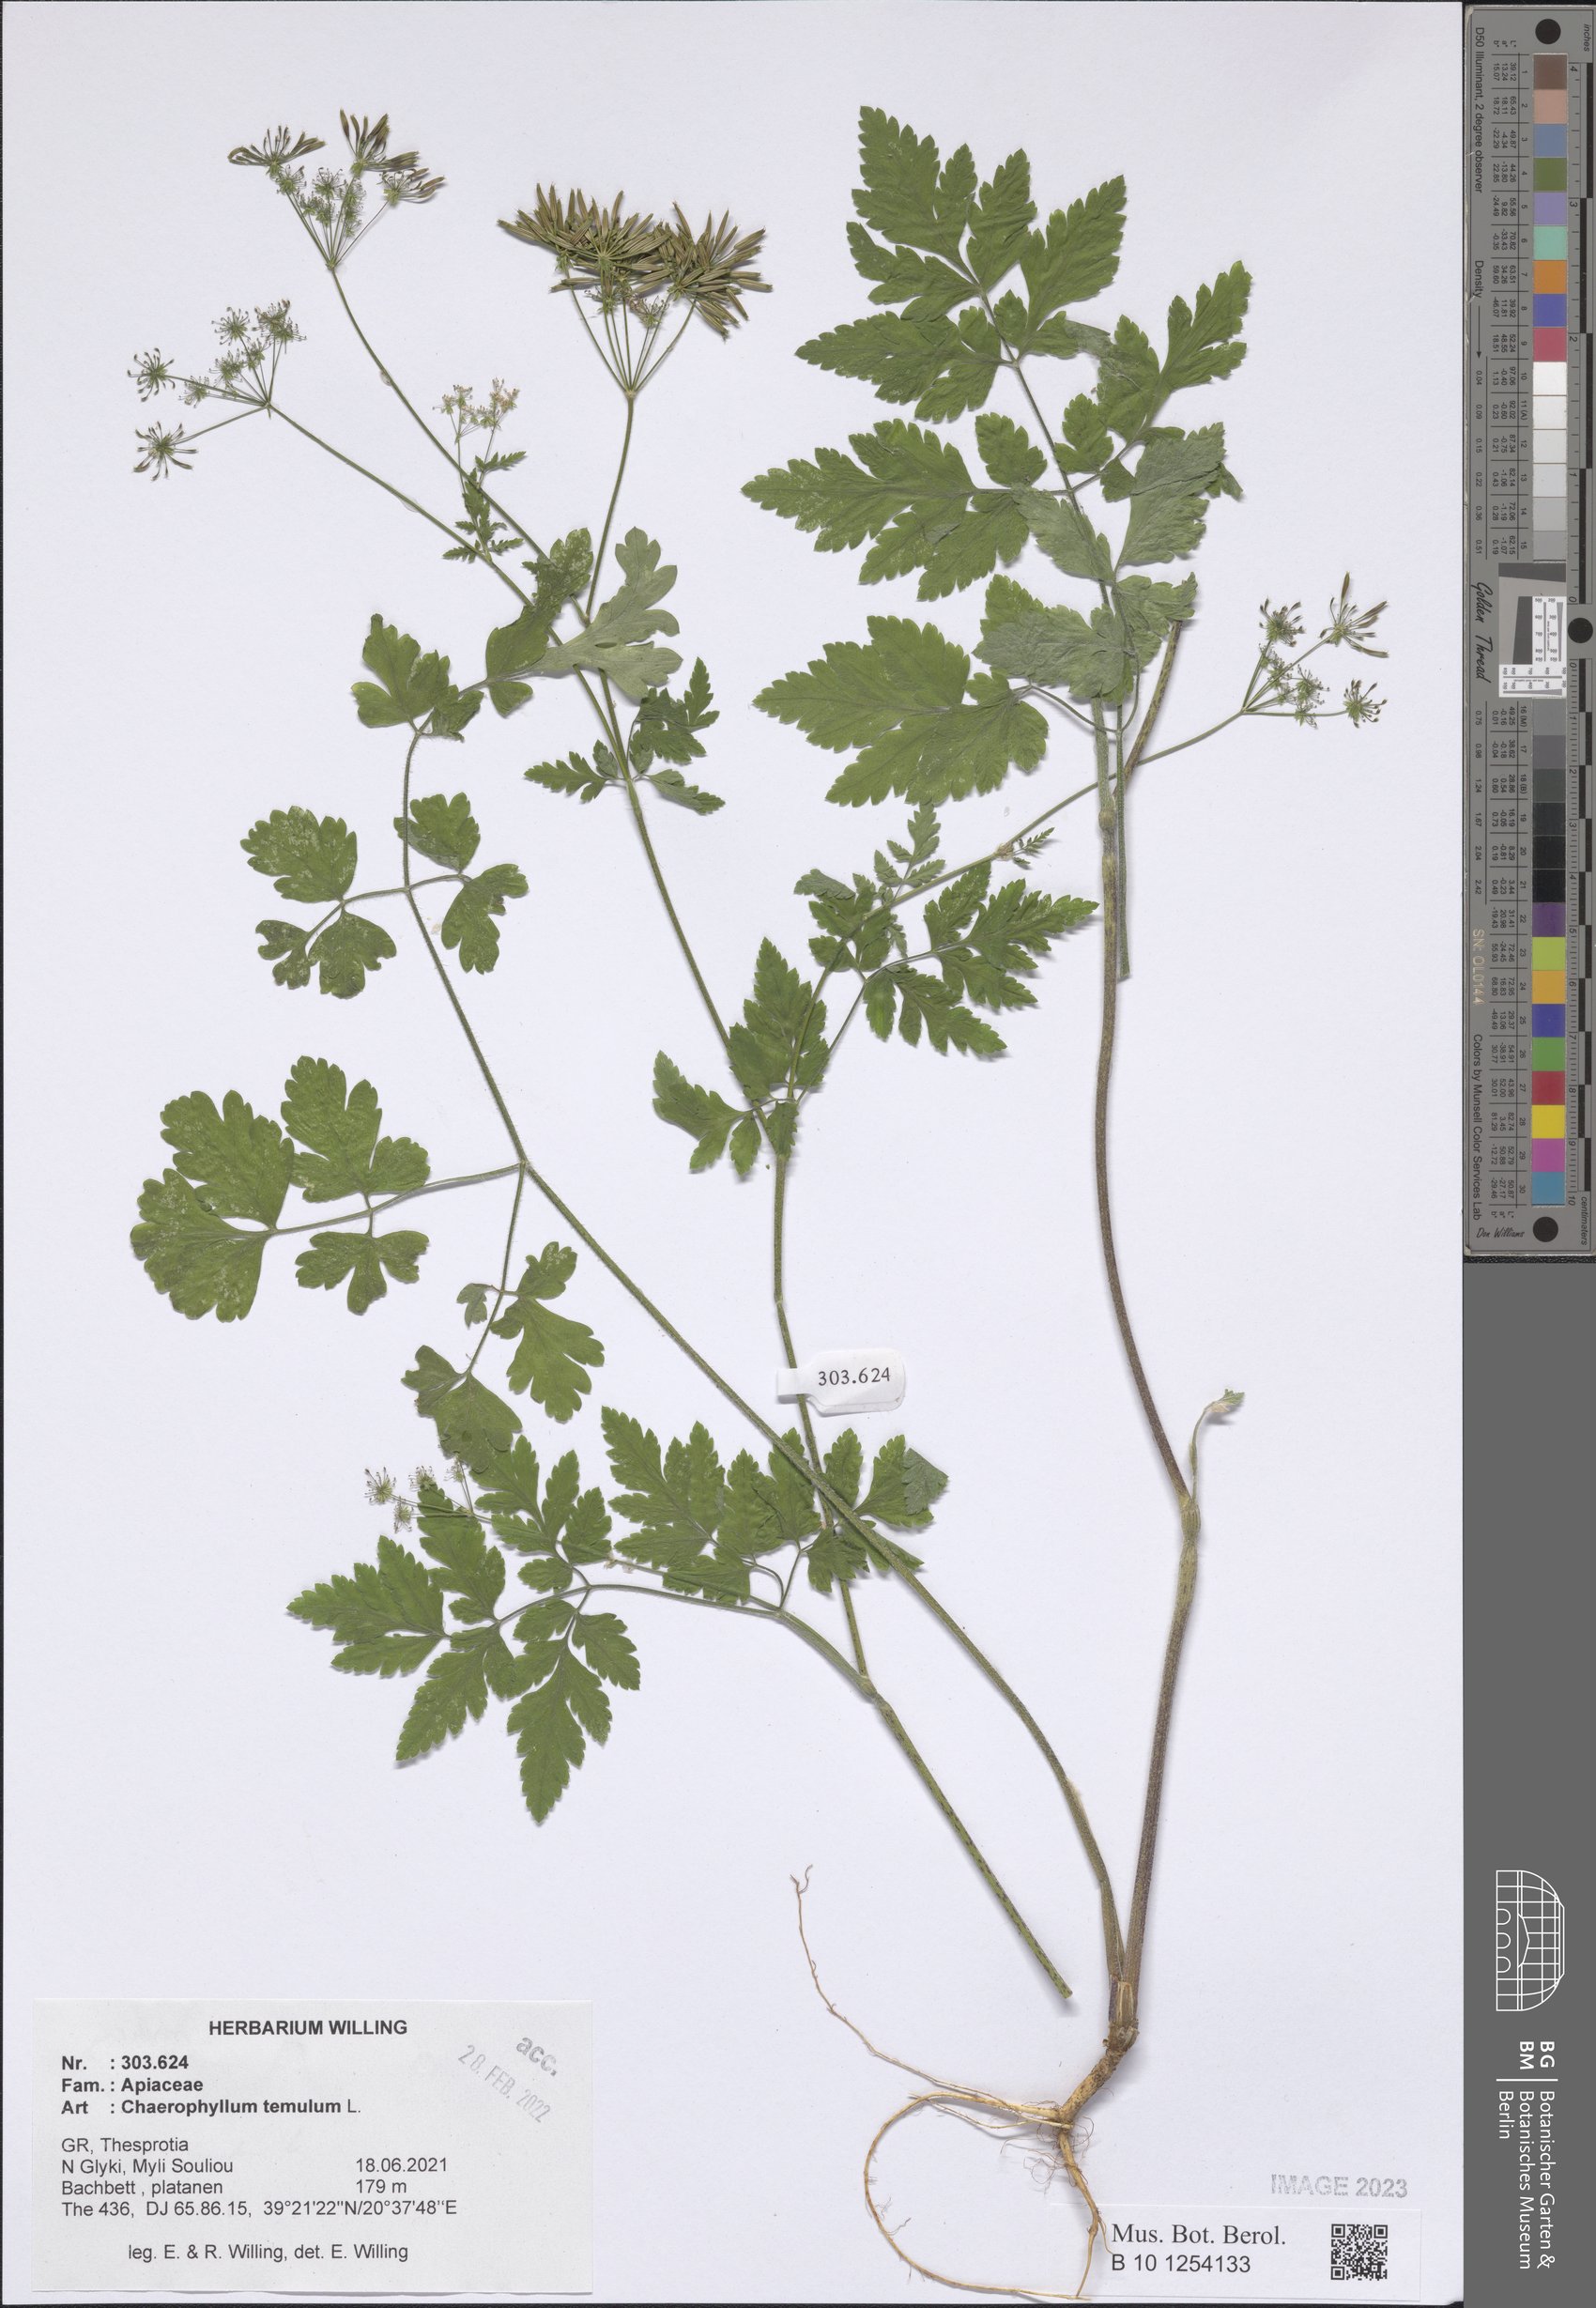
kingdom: Plantae
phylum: Tracheophyta
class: Magnoliopsida
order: Apiales
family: Apiaceae
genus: Chaerophyllum
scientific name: Chaerophyllum temulum
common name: Rough chervil
